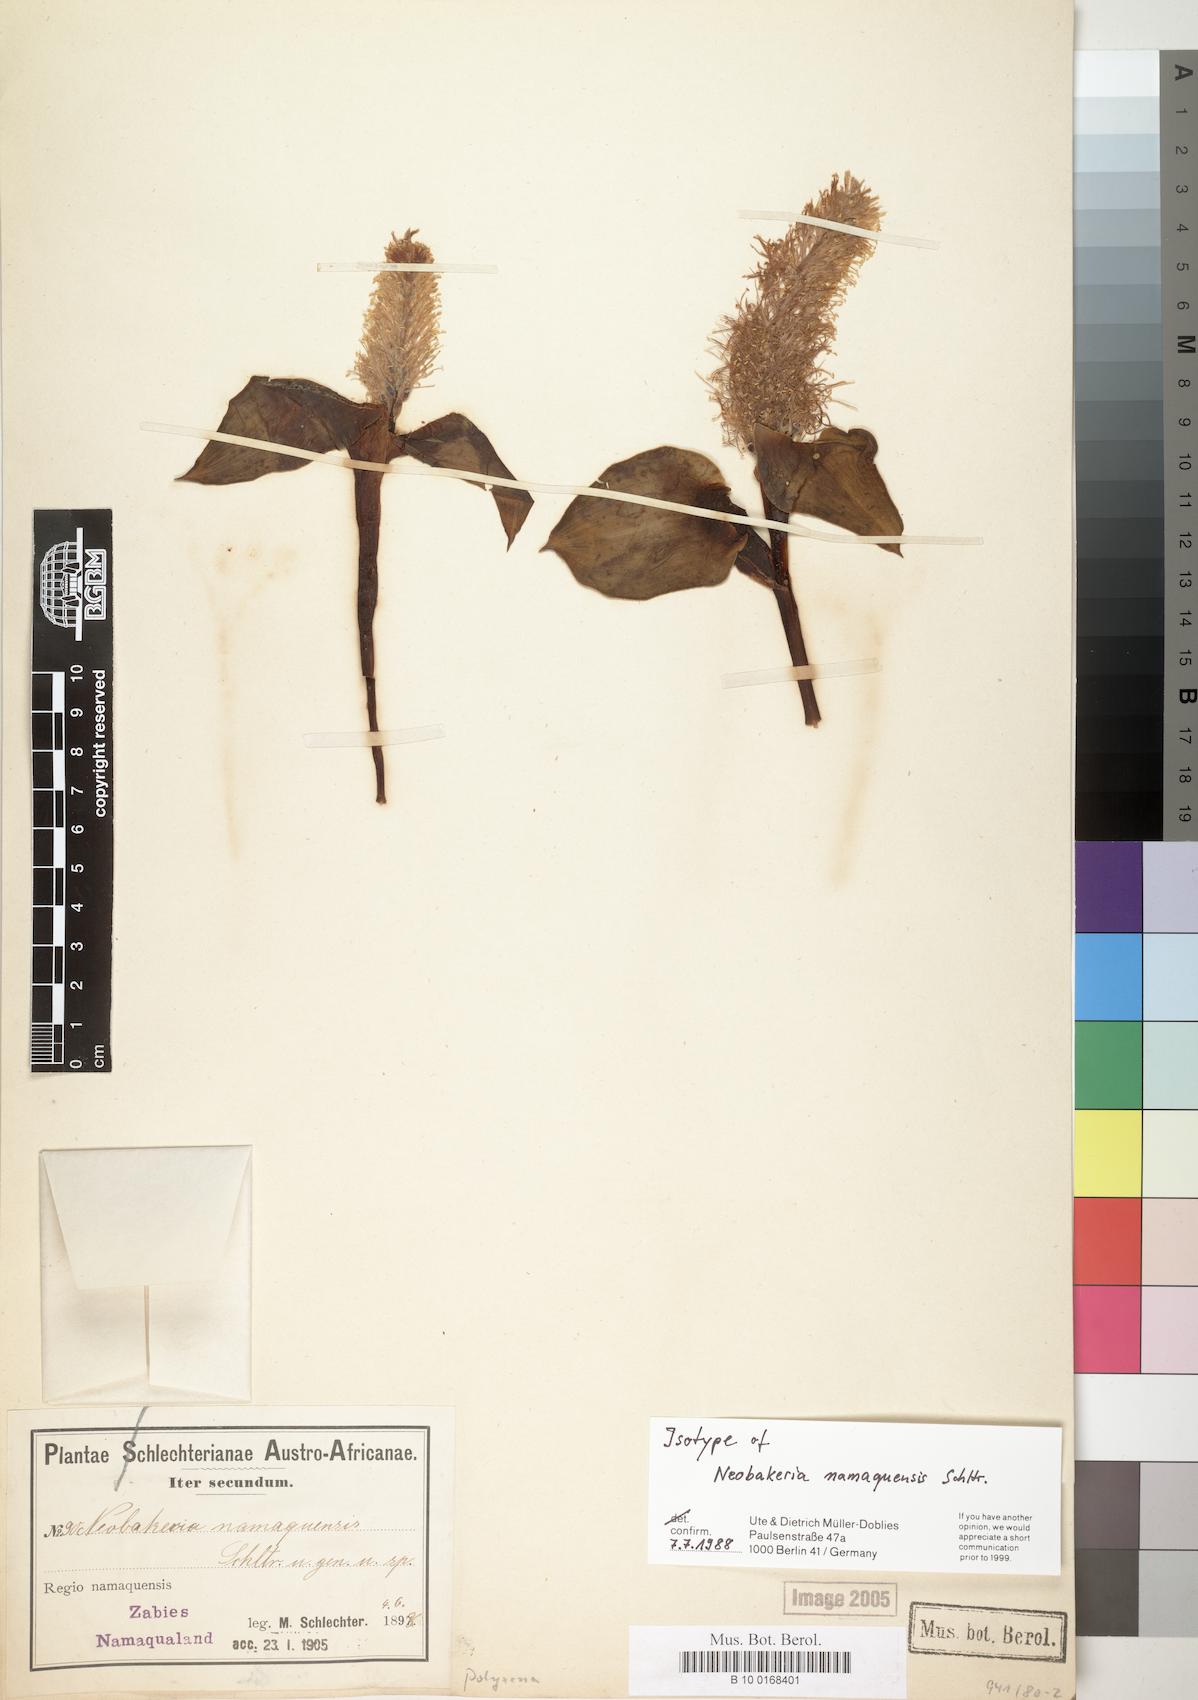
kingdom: Plantae
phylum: Tracheophyta
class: Liliopsida
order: Asparagales
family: Asparagaceae
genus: Daubenya
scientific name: Daubenya namaquensis
